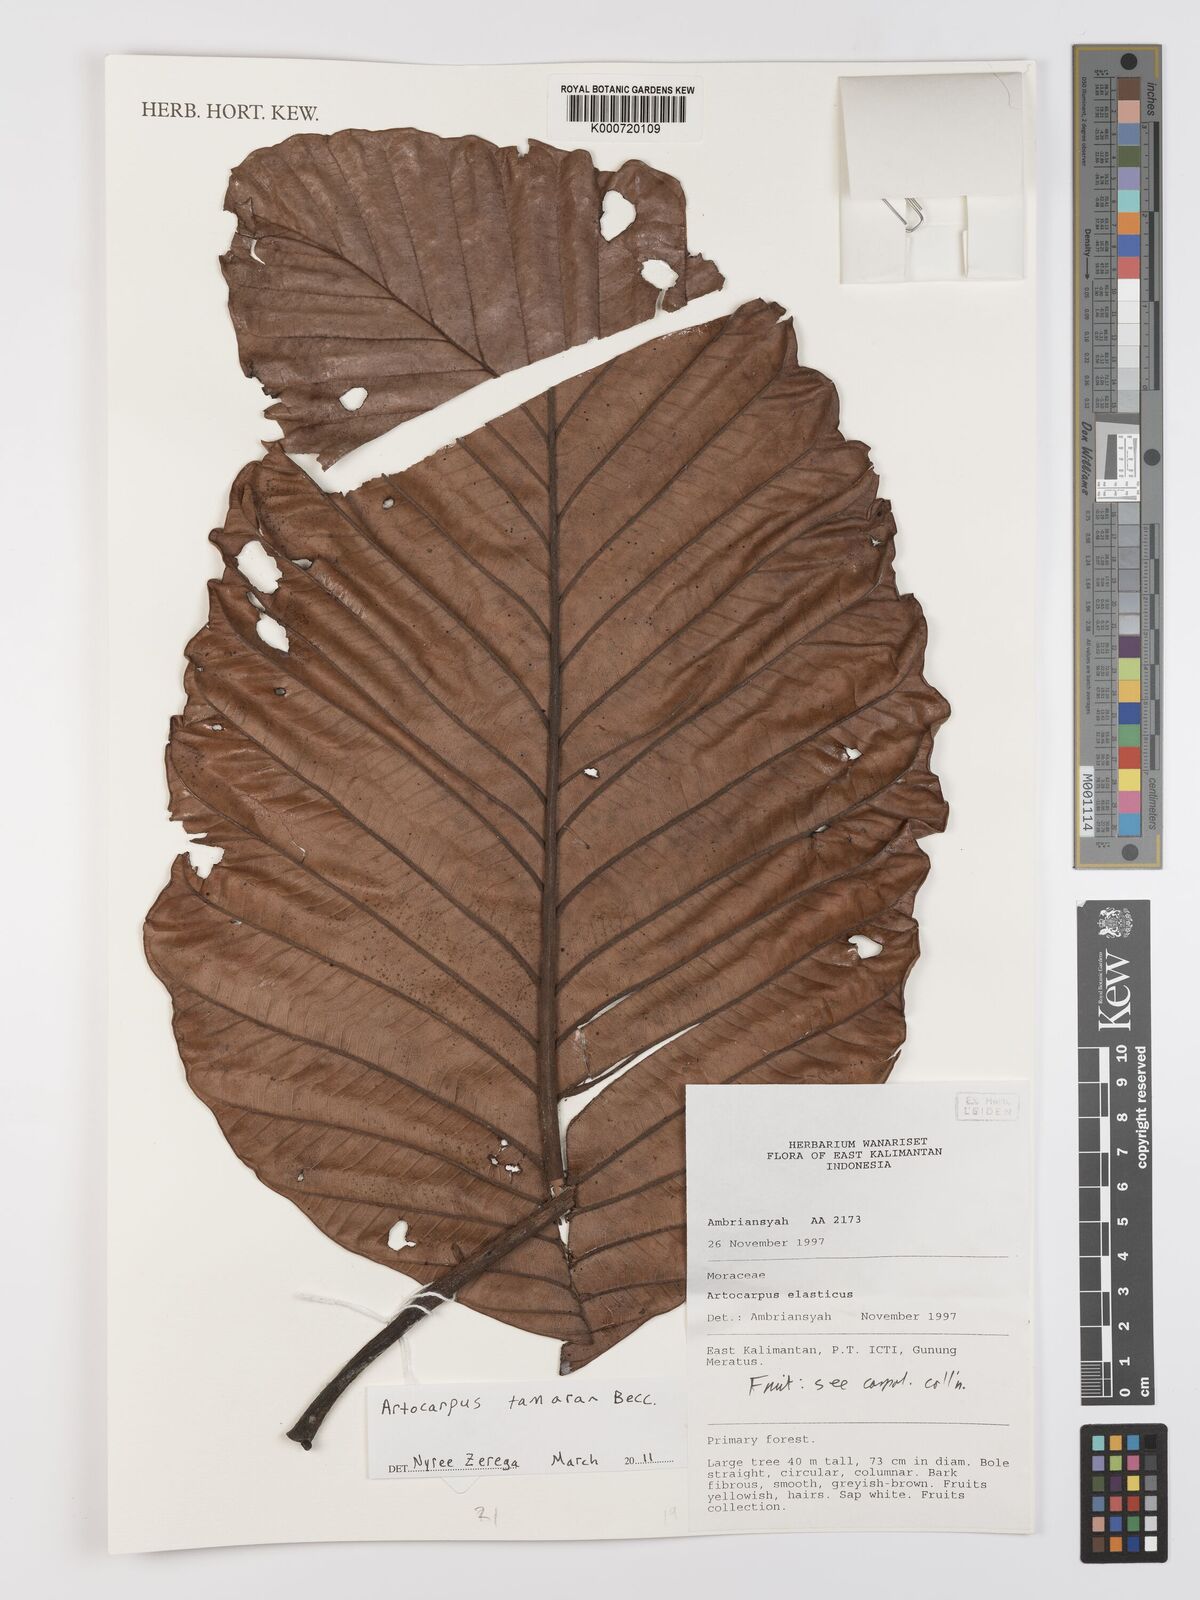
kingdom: Plantae
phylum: Tracheophyta
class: Magnoliopsida
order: Rosales
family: Moraceae
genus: Artocarpus
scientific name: Artocarpus tamaran
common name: Elephant jack
